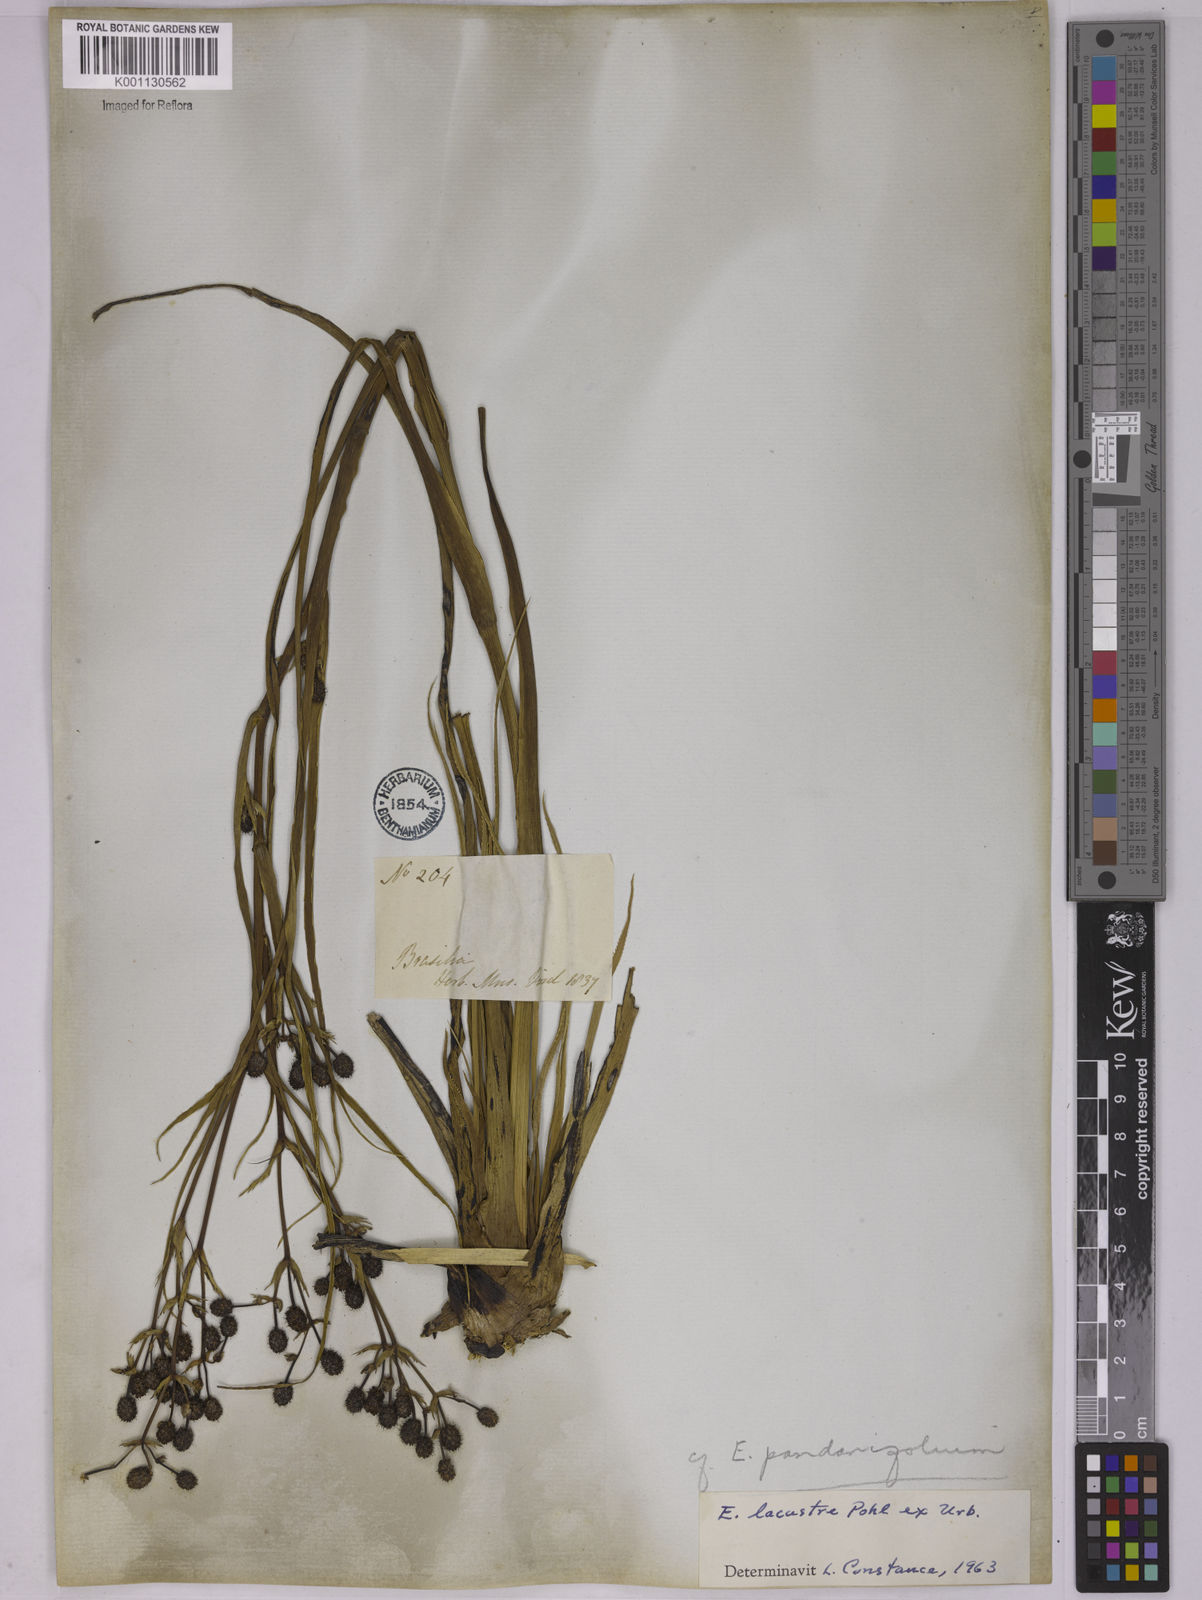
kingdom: Plantae
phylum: Tracheophyta
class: Magnoliopsida
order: Apiales
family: Apiaceae
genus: Eryngium
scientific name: Eryngium lacustre
